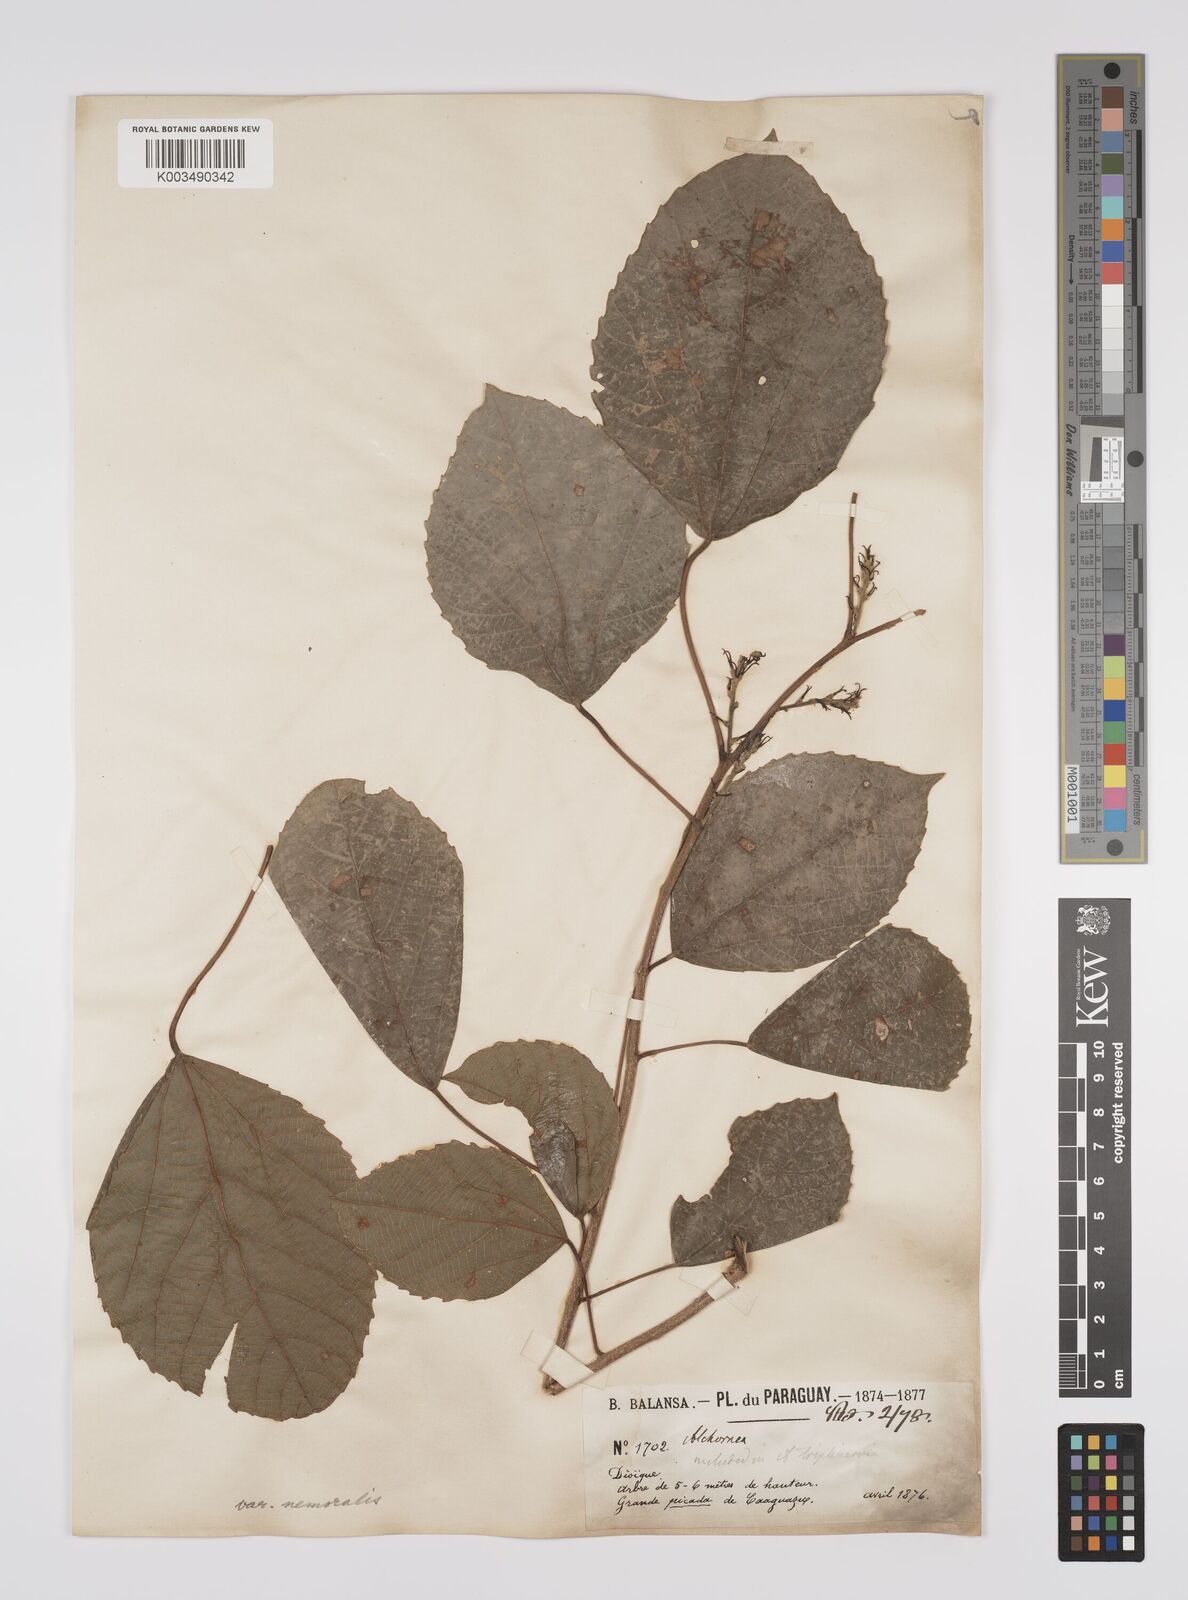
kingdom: Plantae
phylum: Tracheophyta
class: Magnoliopsida
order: Malpighiales
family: Euphorbiaceae
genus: Alchornea
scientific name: Alchornea triplinervia
